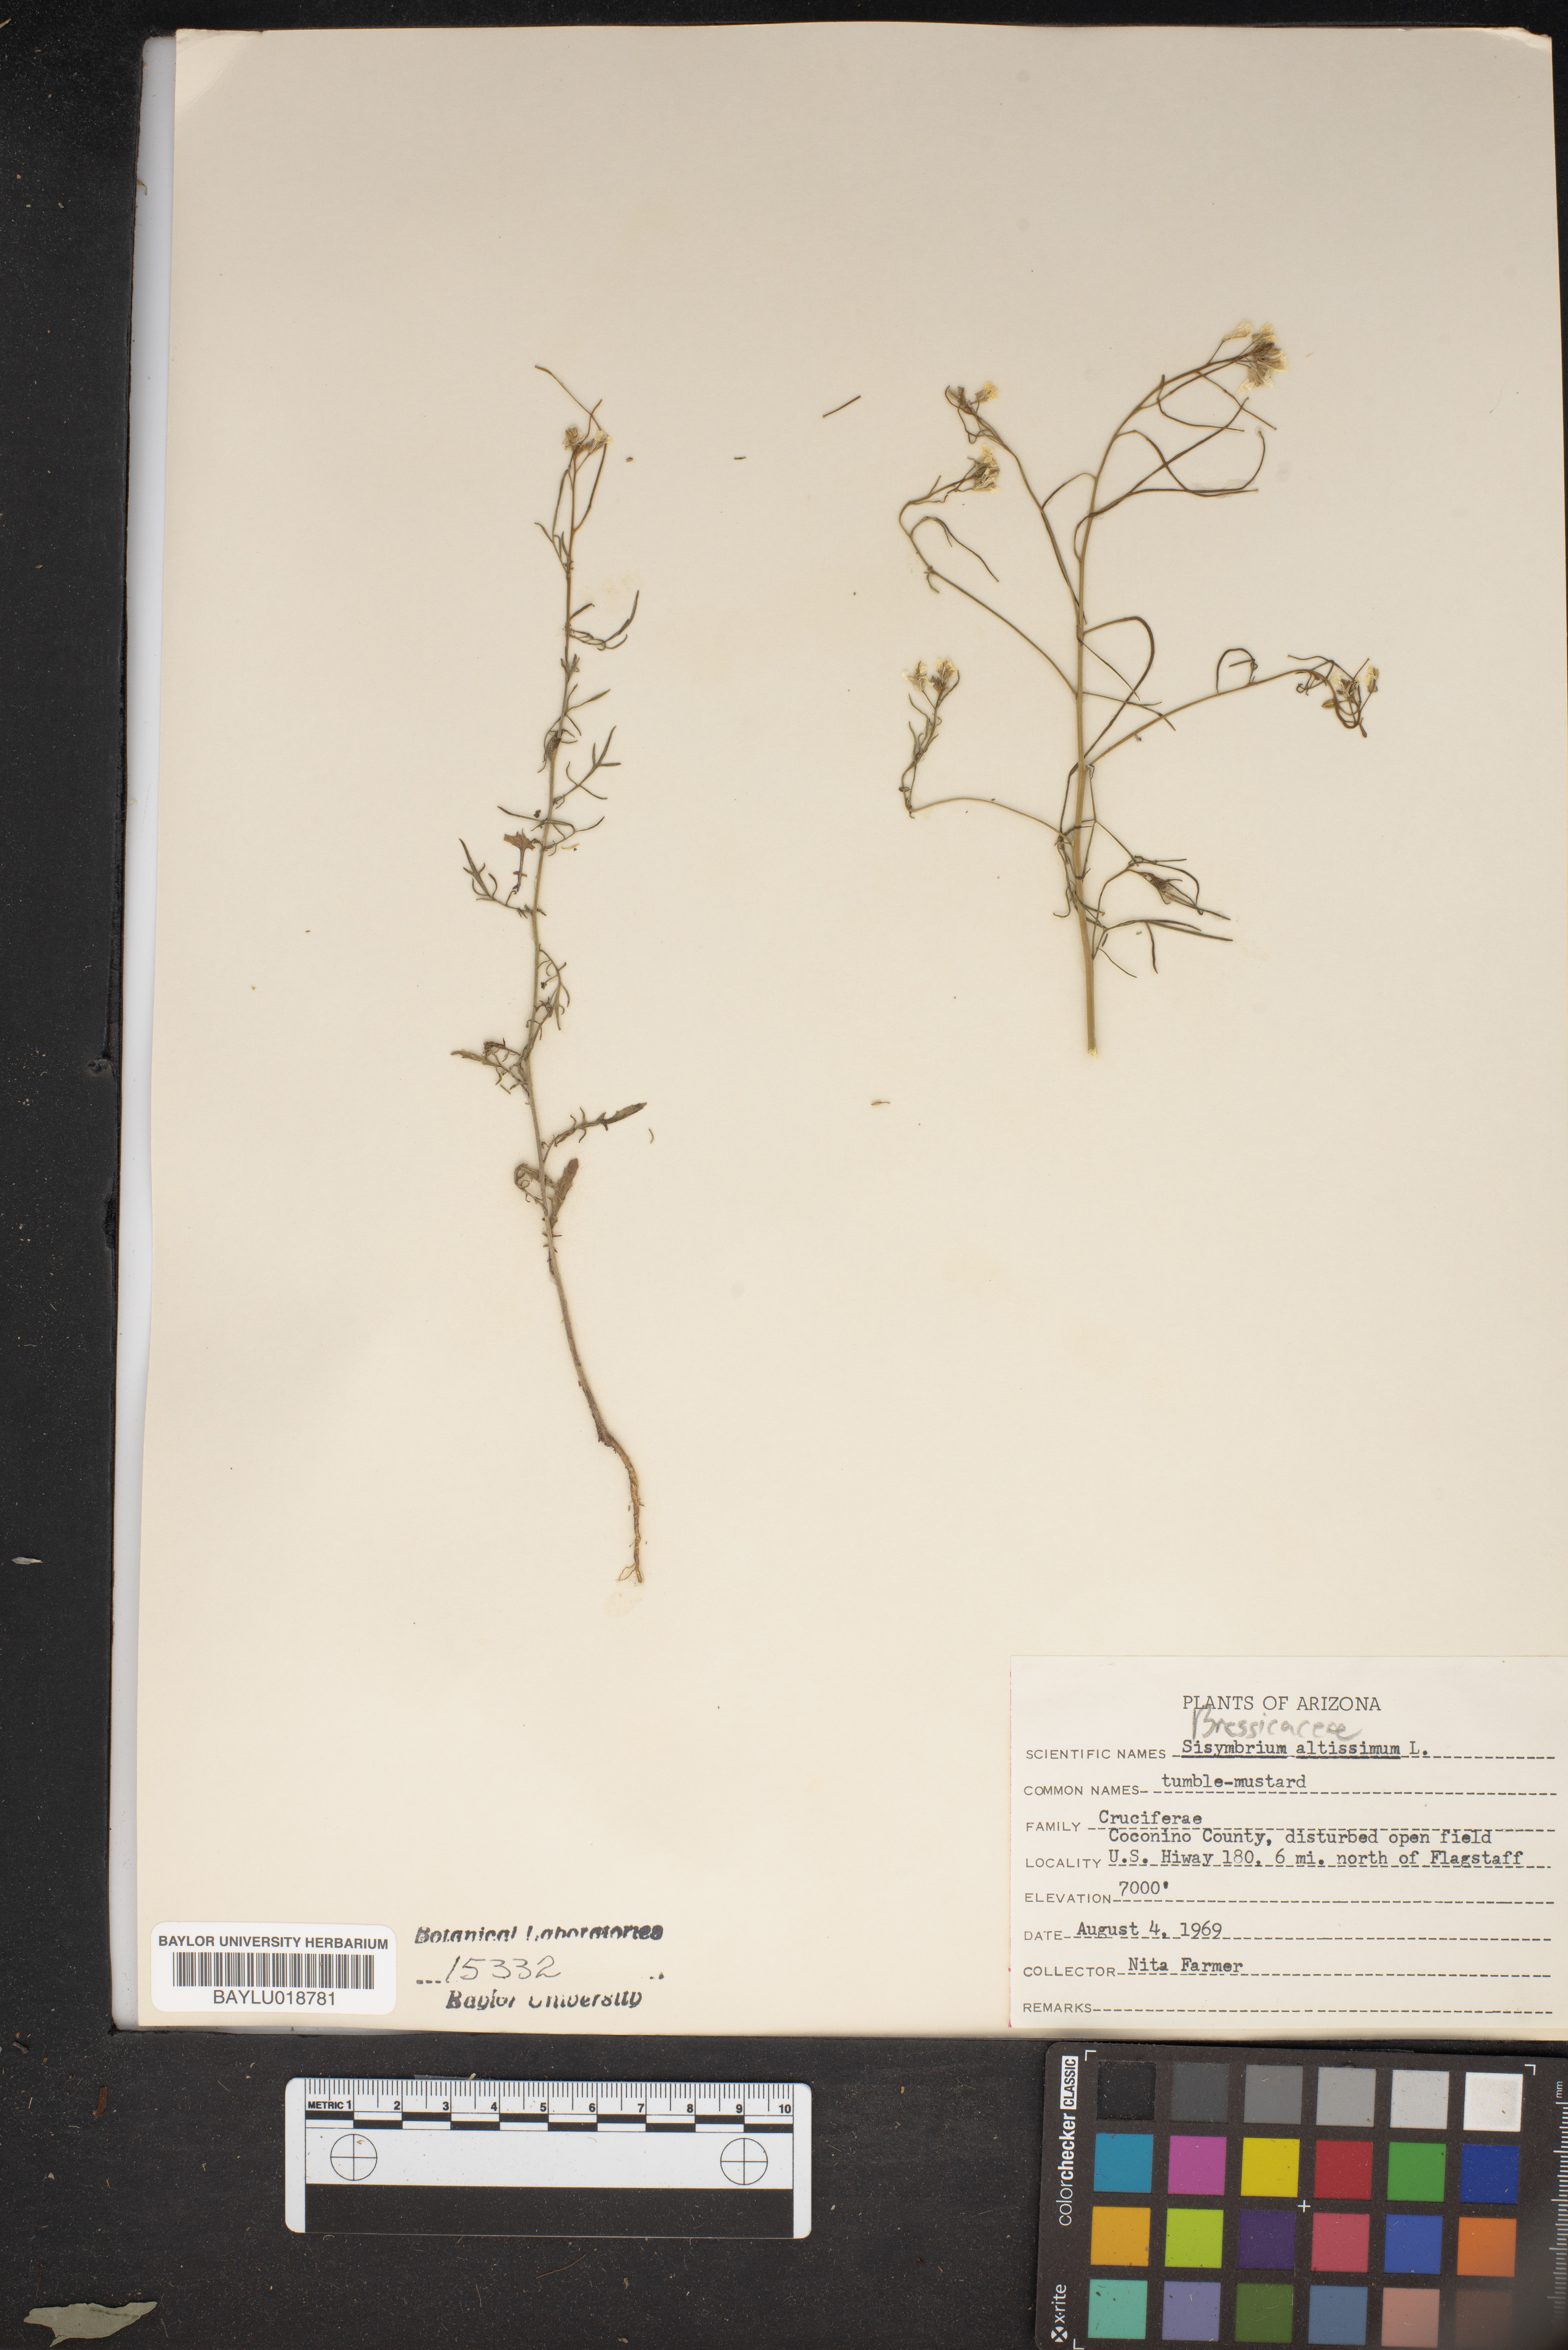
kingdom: Plantae
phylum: Tracheophyta
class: Magnoliopsida
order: Brassicales
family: Brassicaceae
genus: Sisymbrium
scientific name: Sisymbrium altissimum
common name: Tall rocket
